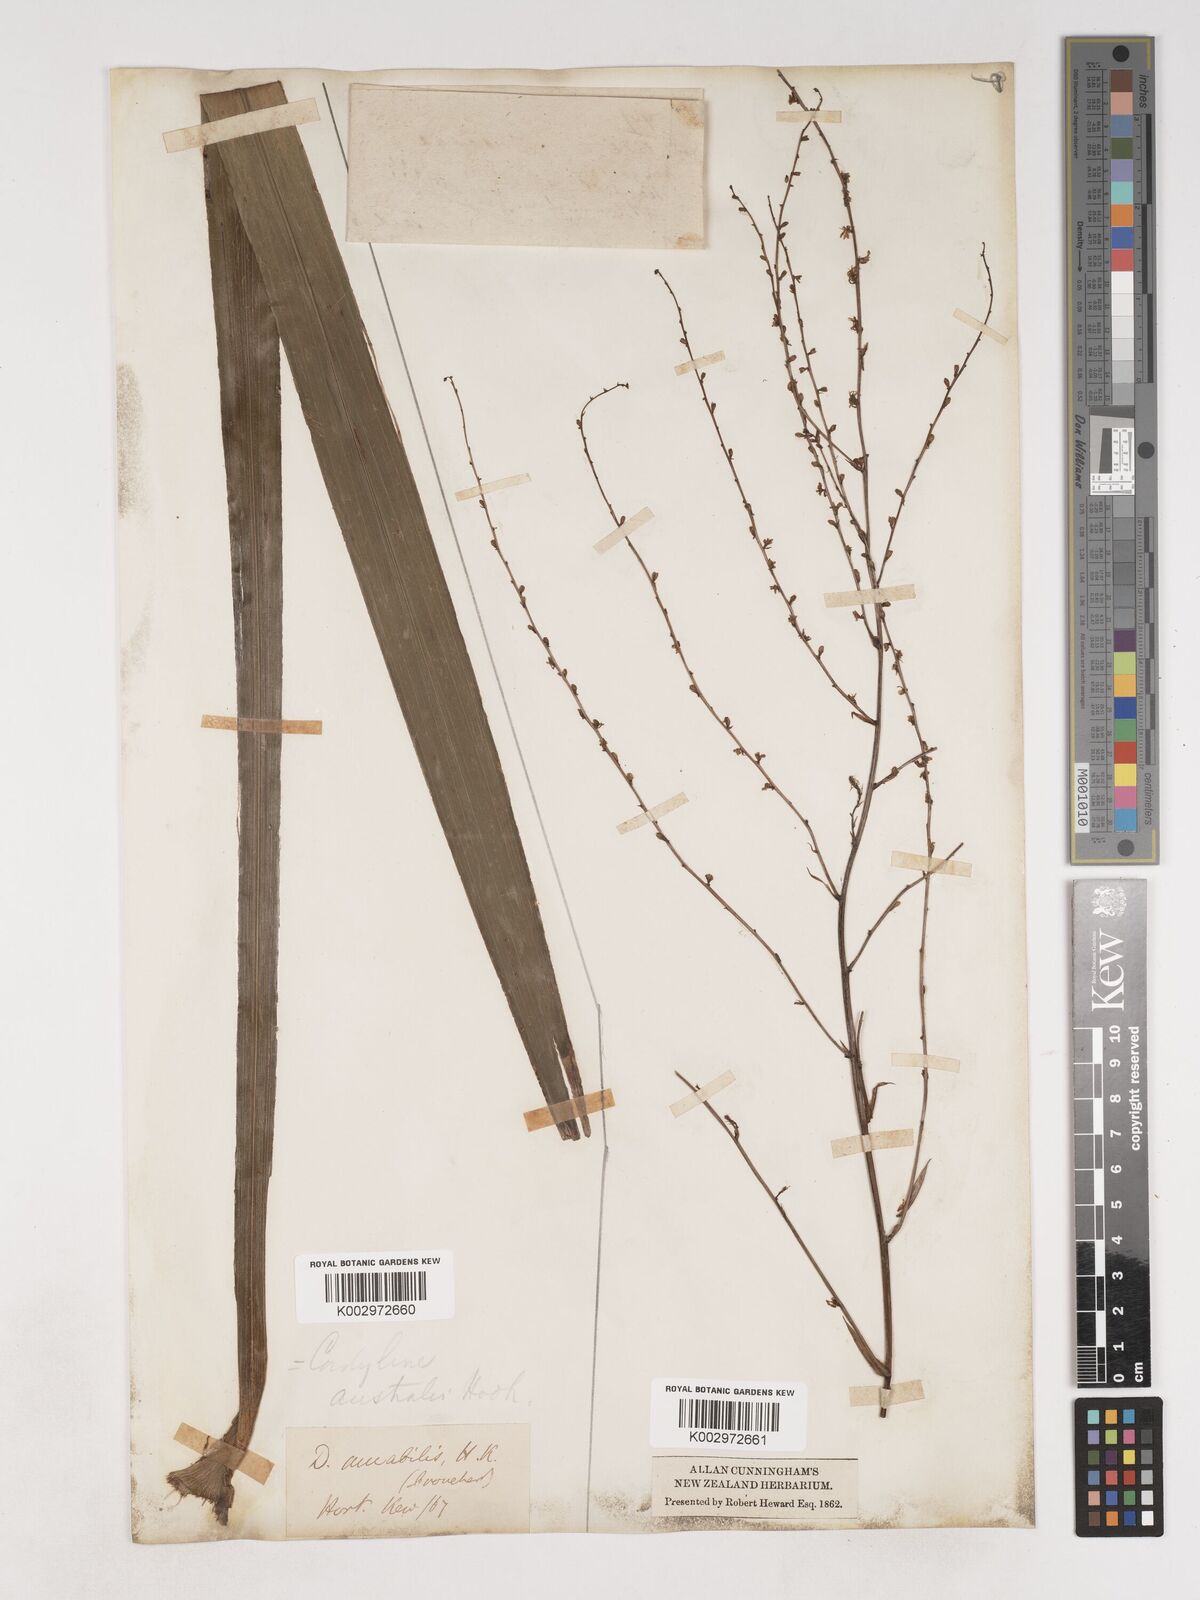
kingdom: Plantae
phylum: Tracheophyta
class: Liliopsida
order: Asparagales
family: Asparagaceae
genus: Cordyline
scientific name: Cordyline australis
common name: Cabbage-palm
